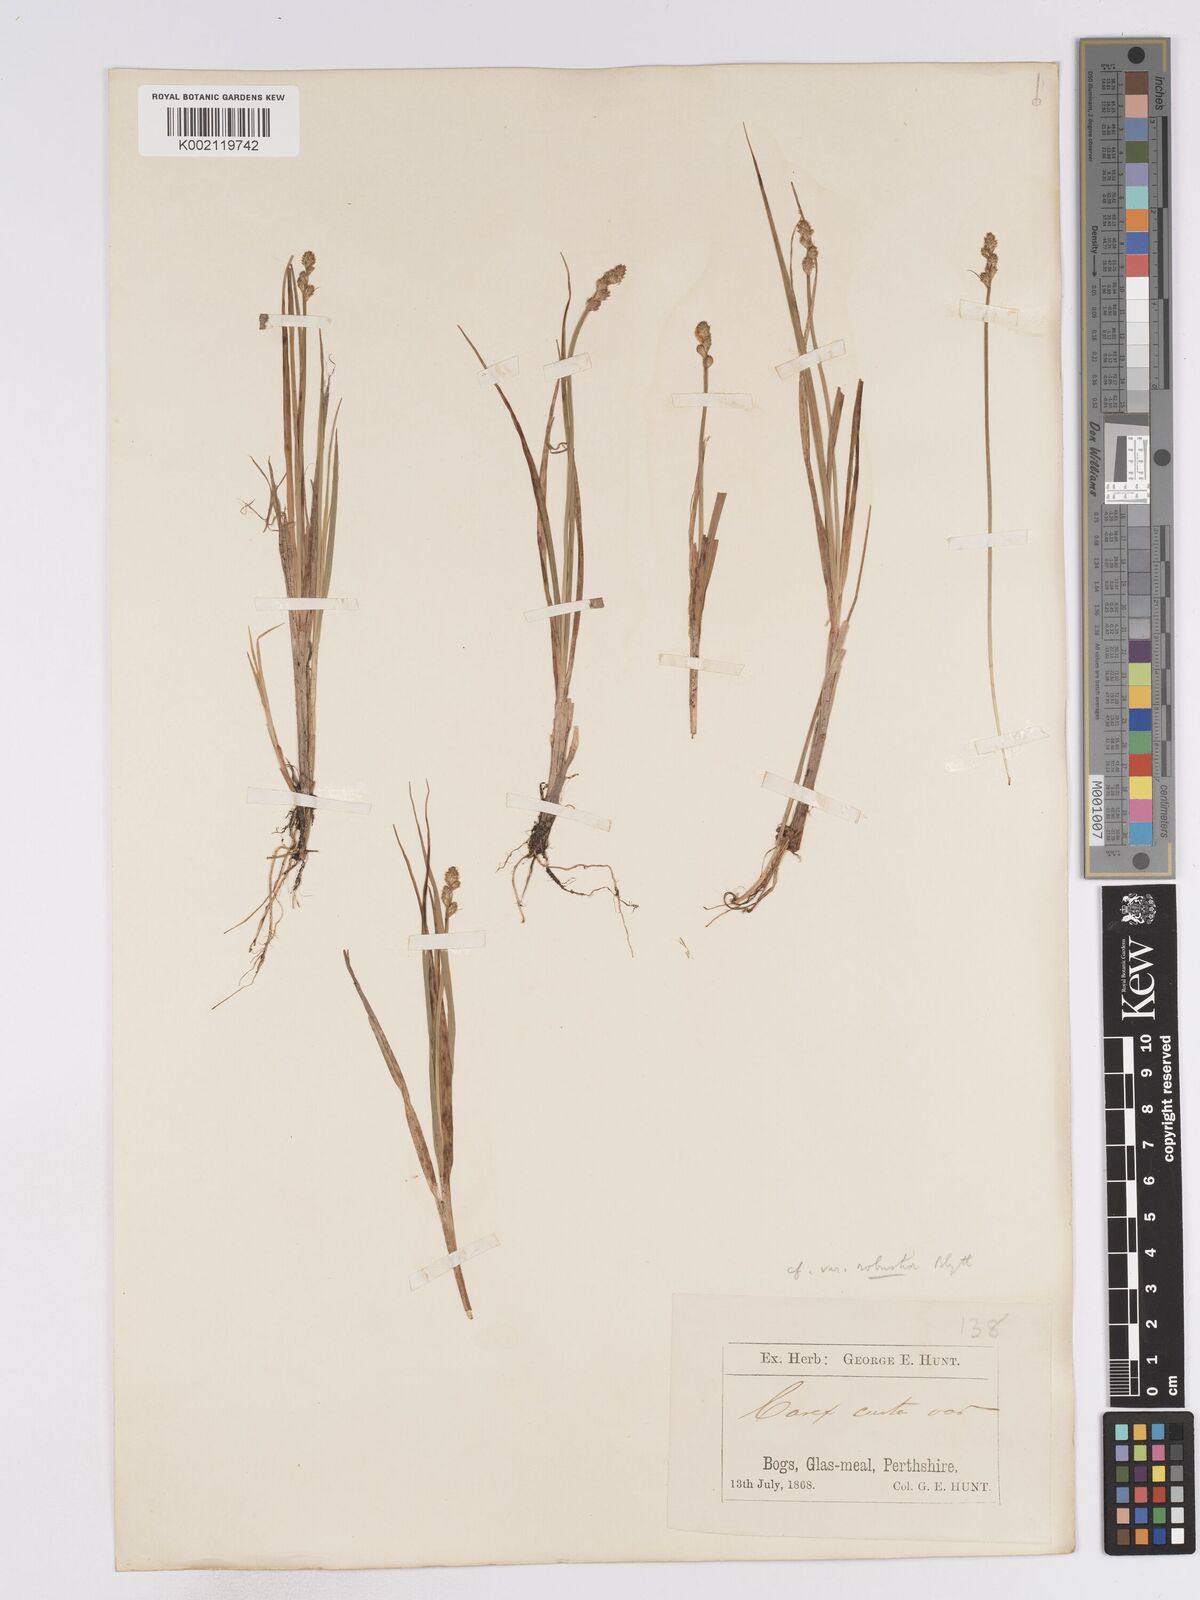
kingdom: Plantae
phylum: Tracheophyta
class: Liliopsida
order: Poales
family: Cyperaceae
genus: Carex
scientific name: Carex curta
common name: White sedge
